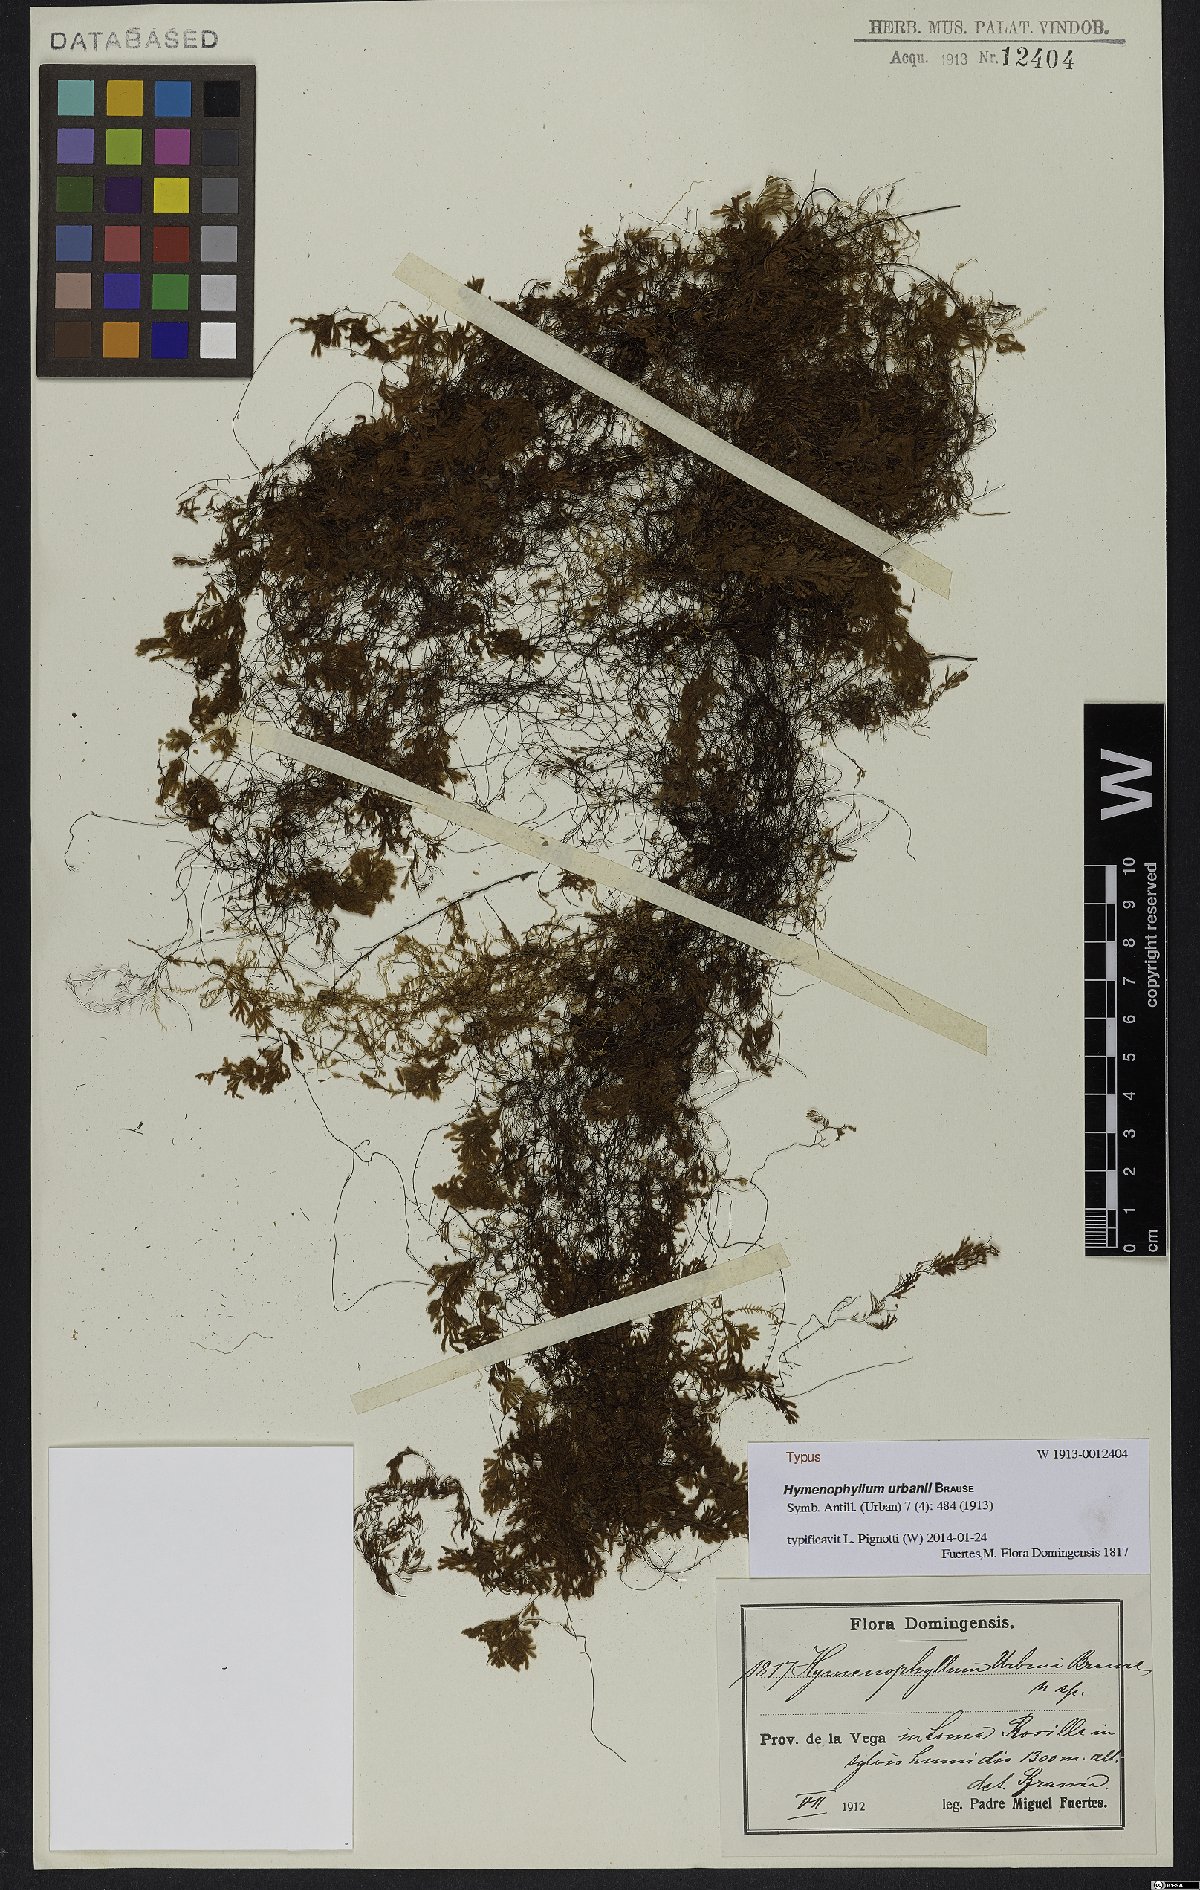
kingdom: Plantae
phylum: Tracheophyta
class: Polypodiopsida
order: Hymenophyllales
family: Hymenophyllaceae
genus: Hymenophyllum
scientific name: Hymenophyllum urbani
